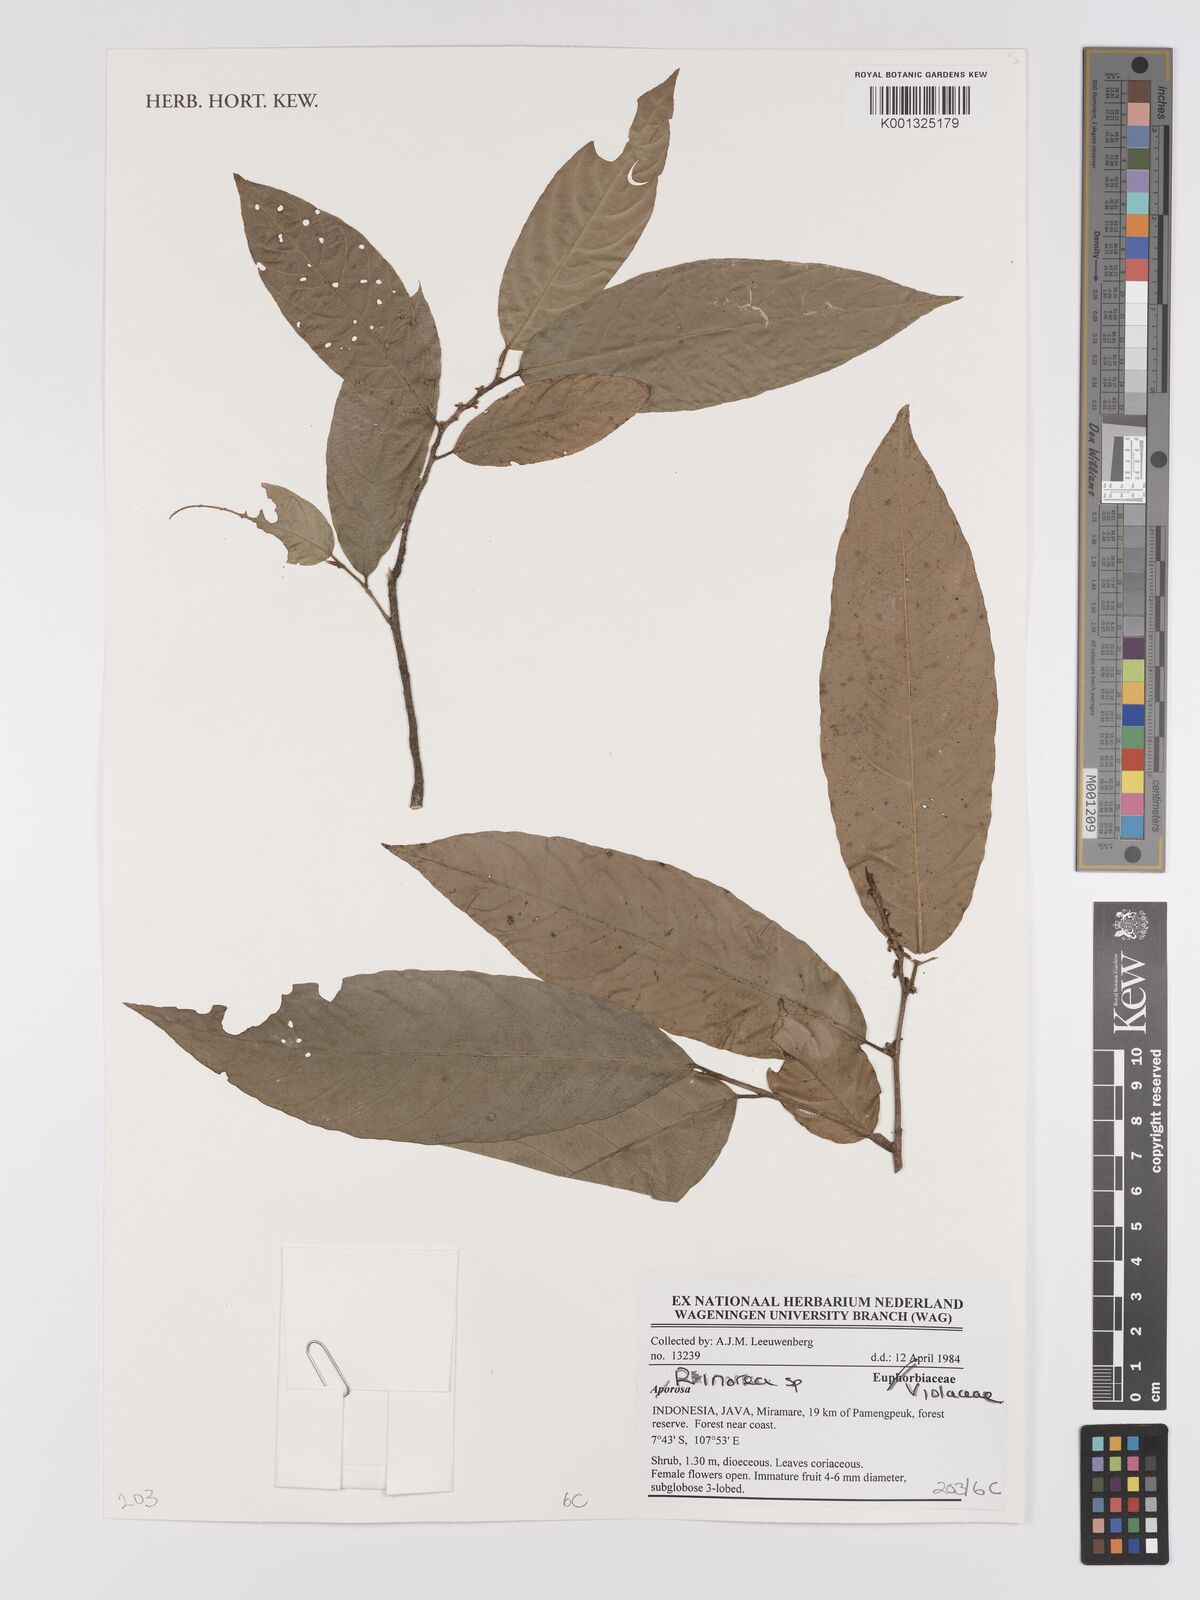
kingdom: Plantae
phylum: Tracheophyta
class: Magnoliopsida
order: Malpighiales
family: Violaceae
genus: Rinorea
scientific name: Rinorea
